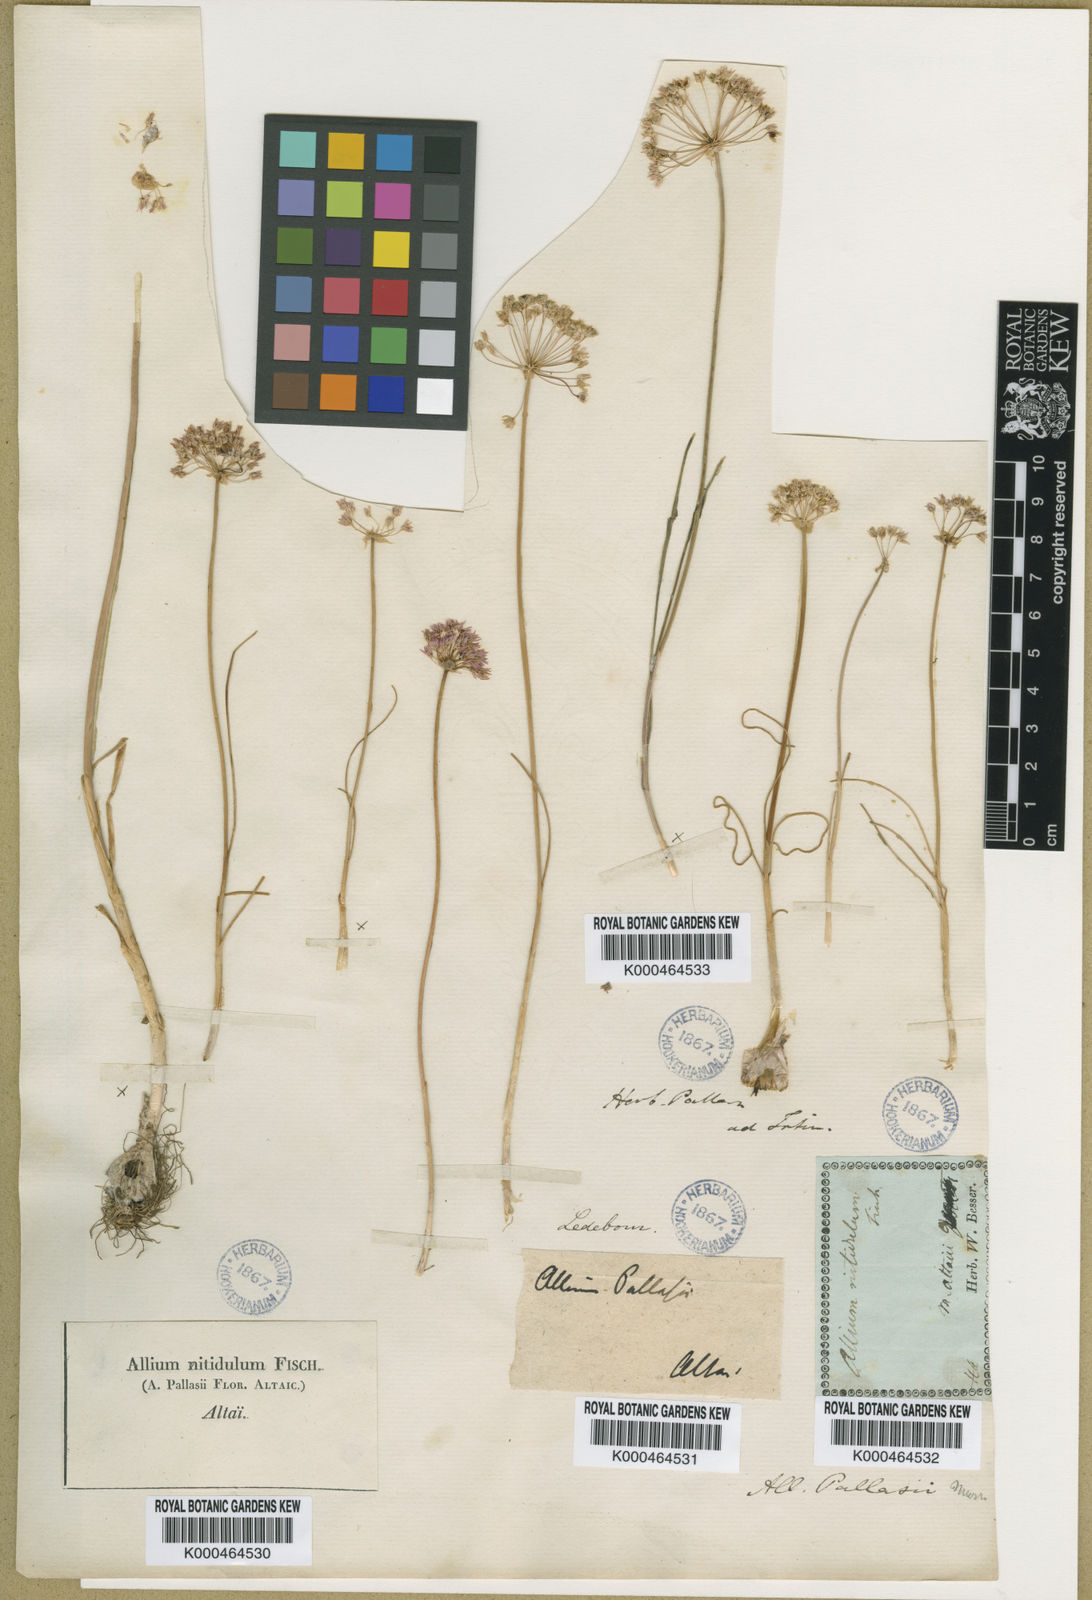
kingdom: Plantae
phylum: Tracheophyta
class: Liliopsida
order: Asparagales
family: Amaryllidaceae
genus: Allium
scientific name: Allium pallasii
